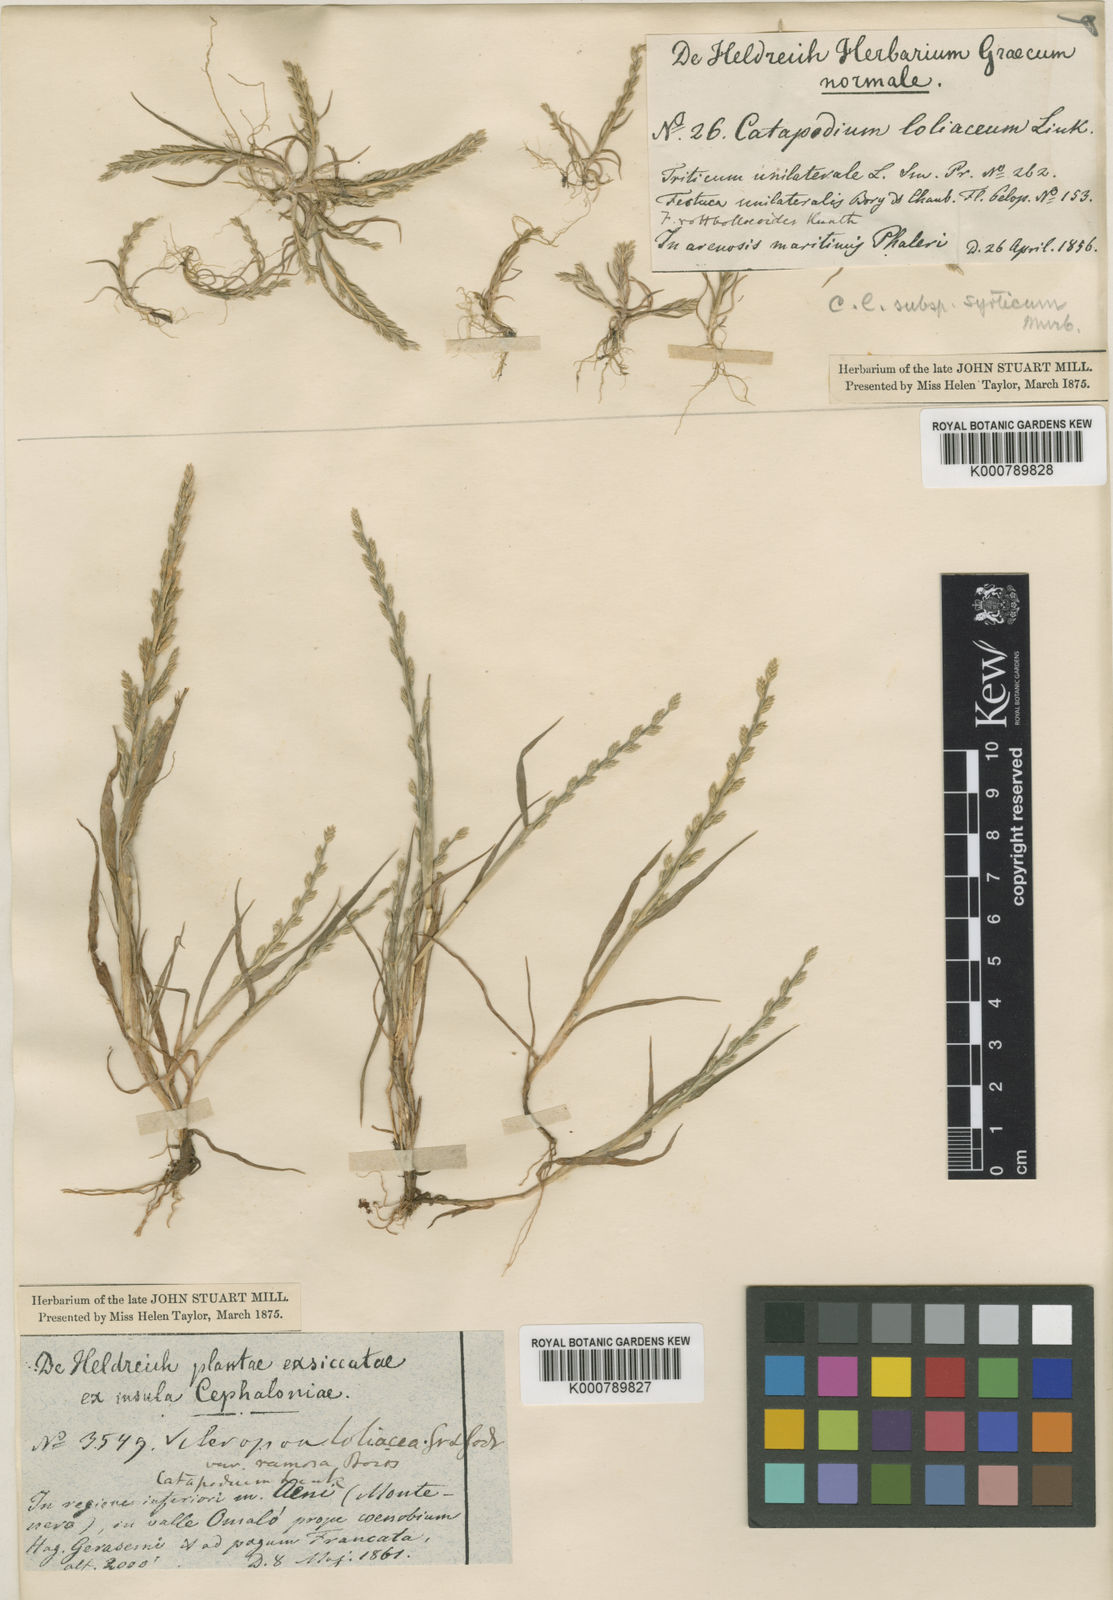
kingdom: Plantae
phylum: Tracheophyta
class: Liliopsida
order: Poales
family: Poaceae
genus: Catapodium
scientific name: Catapodium marinum
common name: Sea fern-grass
